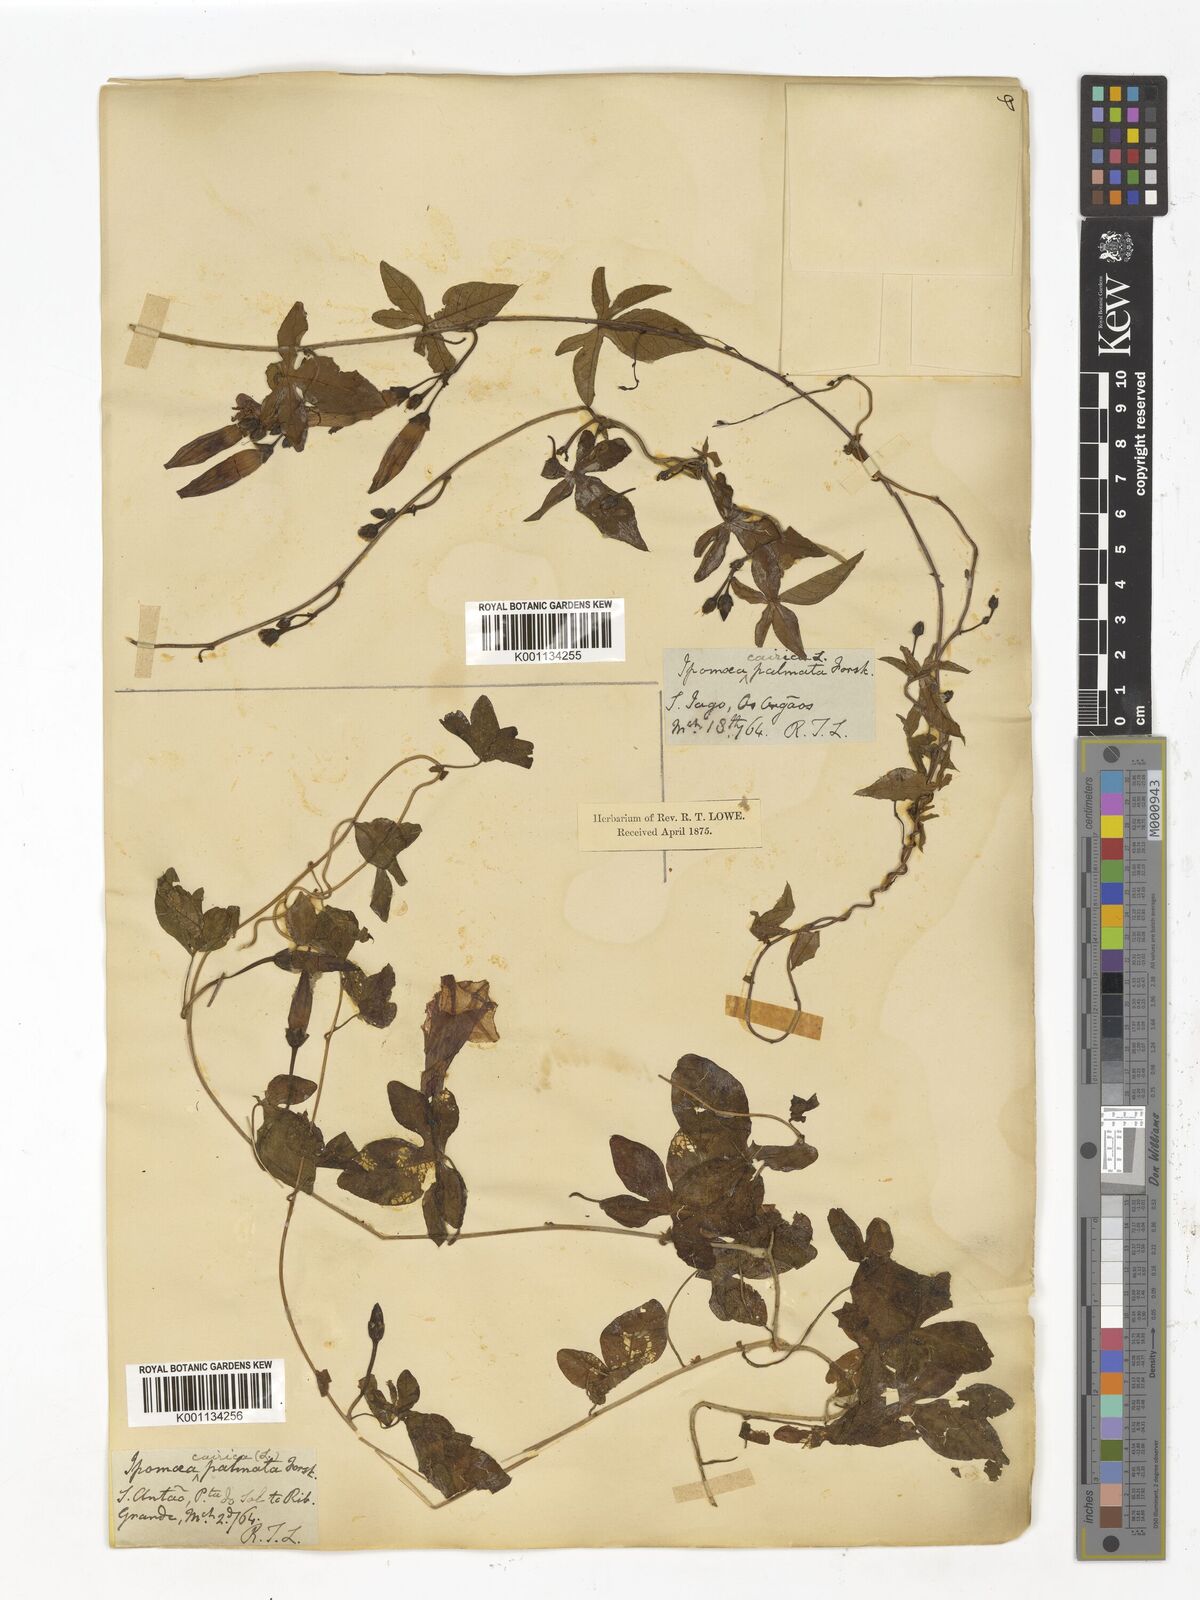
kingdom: Plantae
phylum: Tracheophyta
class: Magnoliopsida
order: Solanales
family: Convolvulaceae
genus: Ipomoea
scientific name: Ipomoea cairica
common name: Mile a minute vine
